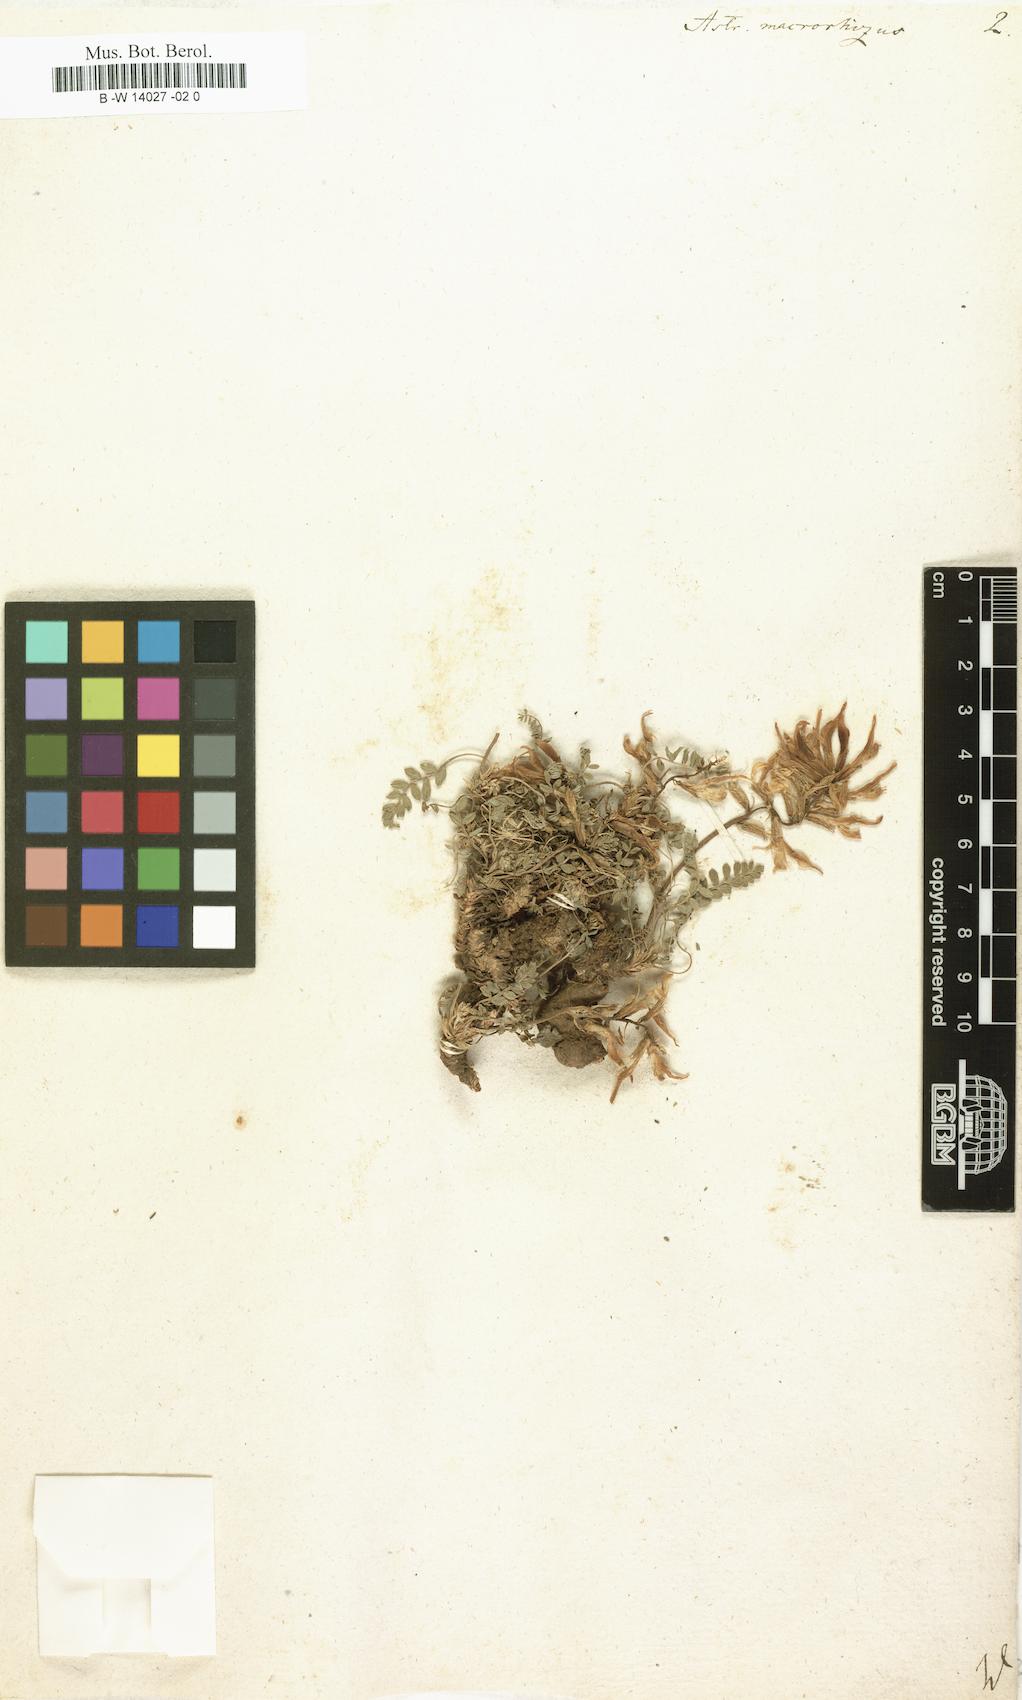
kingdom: Plantae
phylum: Tracheophyta
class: Magnoliopsida
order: Fabales
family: Fabaceae
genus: Phyllolobium
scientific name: Phyllolobium donianum
